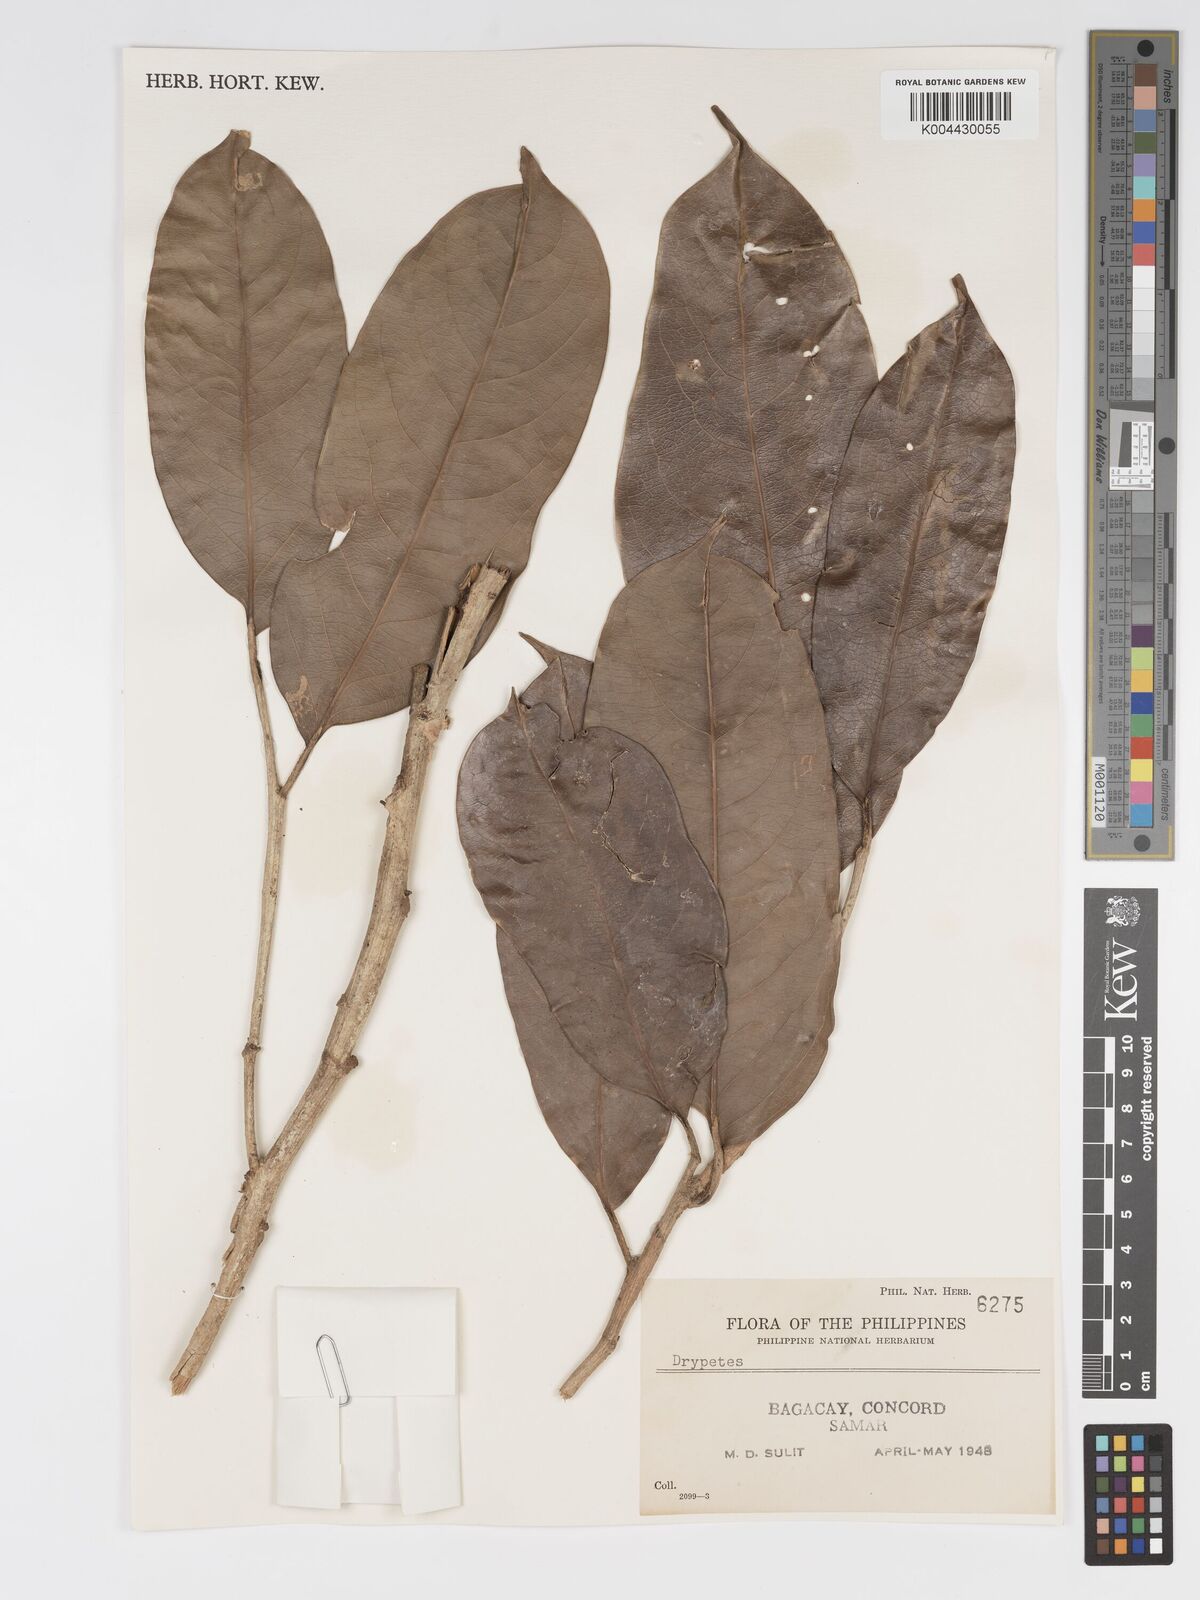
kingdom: Plantae
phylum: Tracheophyta
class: Magnoliopsida
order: Malpighiales
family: Putranjivaceae
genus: Drypetes
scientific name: Drypetes
